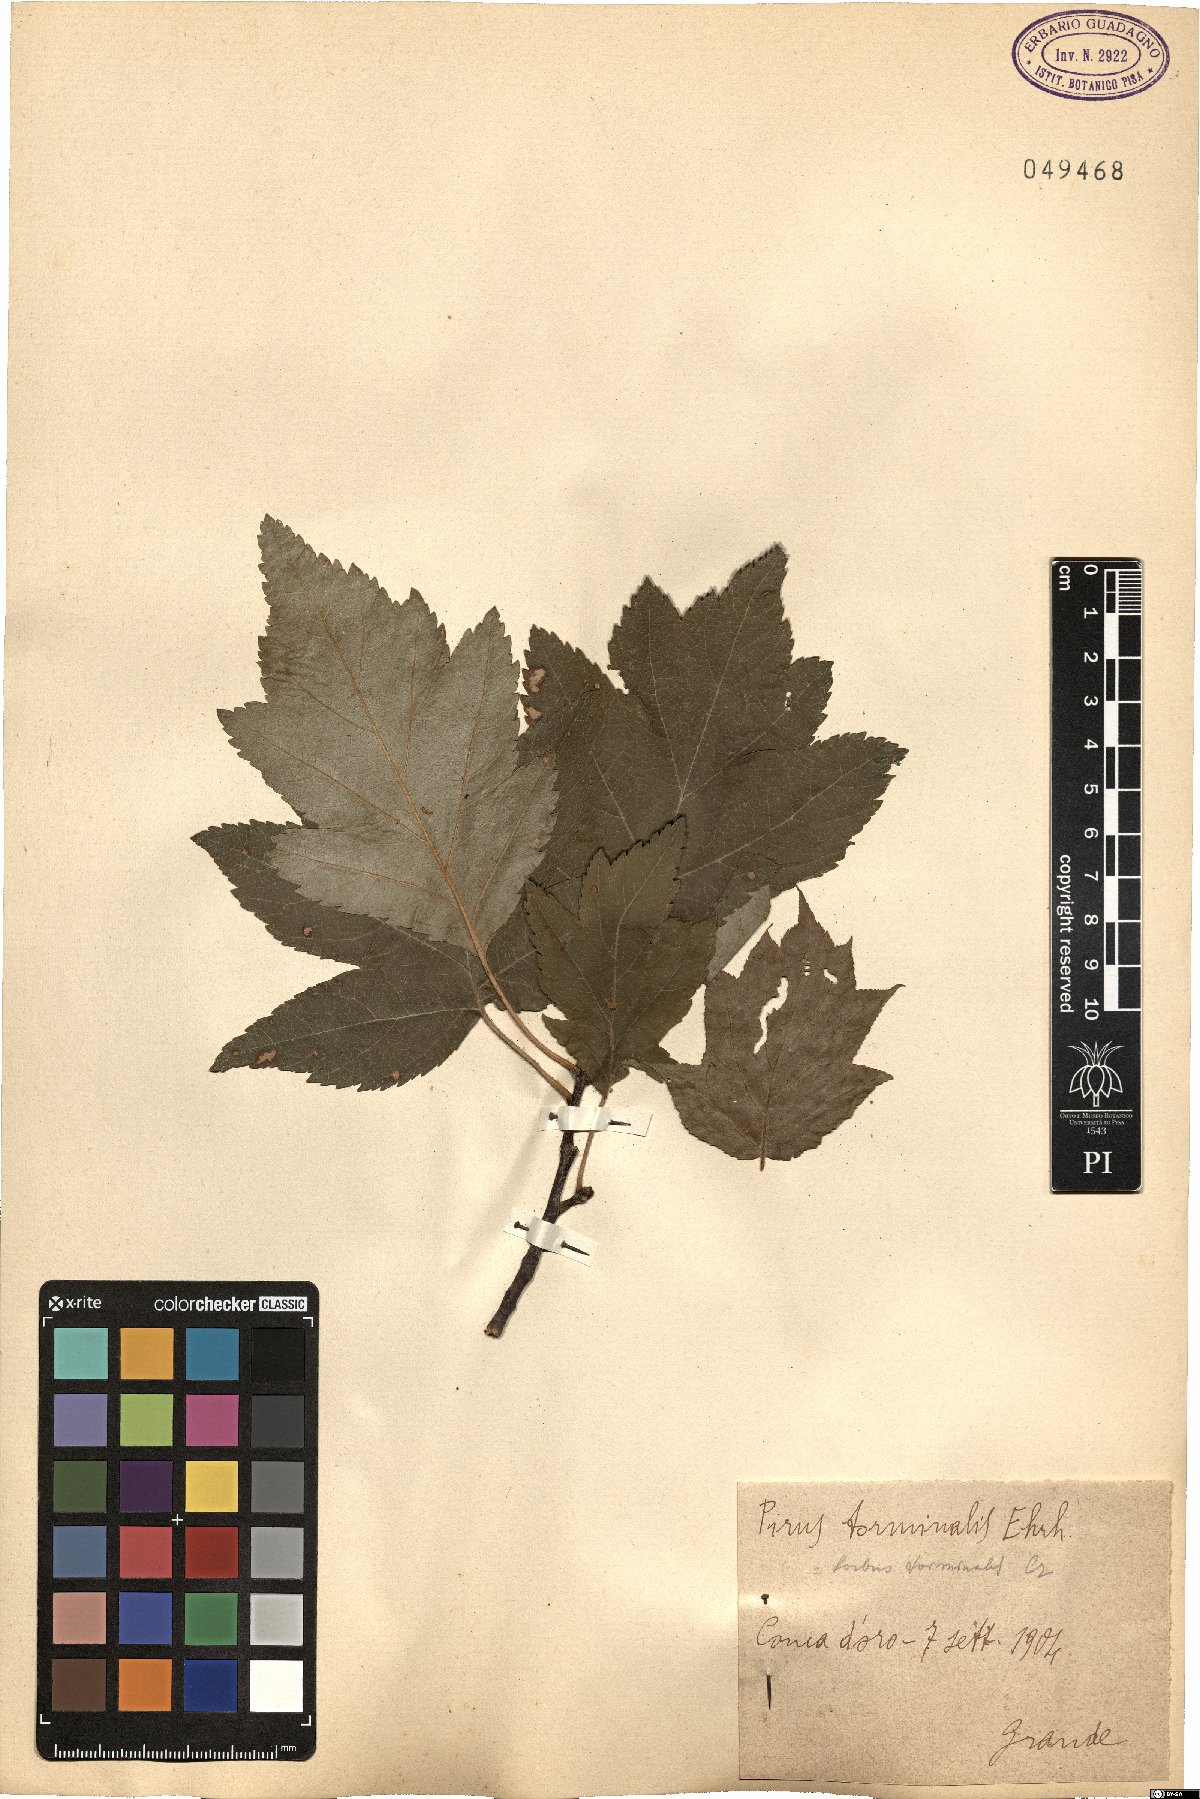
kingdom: Plantae
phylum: Tracheophyta
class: Magnoliopsida
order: Rosales
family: Rosaceae
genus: Torminalis
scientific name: Torminalis glaberrima
